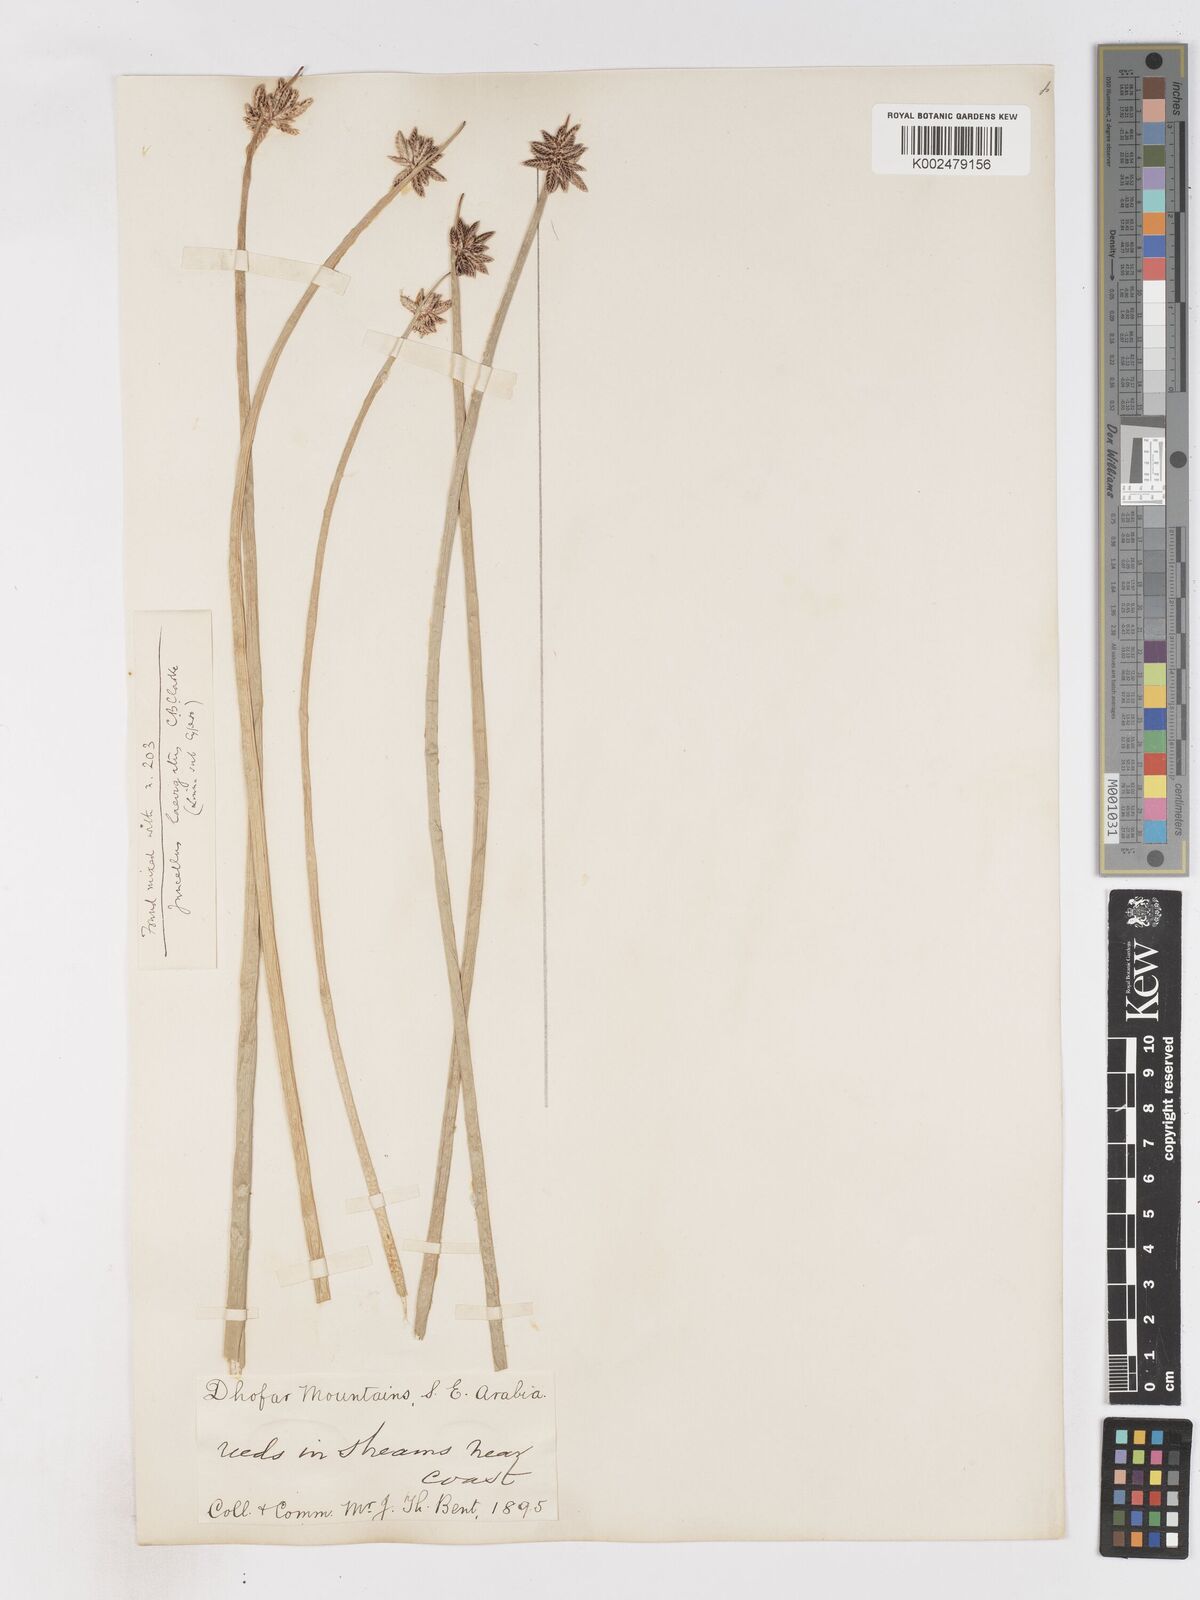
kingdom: Plantae
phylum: Tracheophyta
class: Liliopsida
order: Poales
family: Cyperaceae
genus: Cyperus
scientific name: Cyperus laevigatus
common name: Smooth flat sedge
